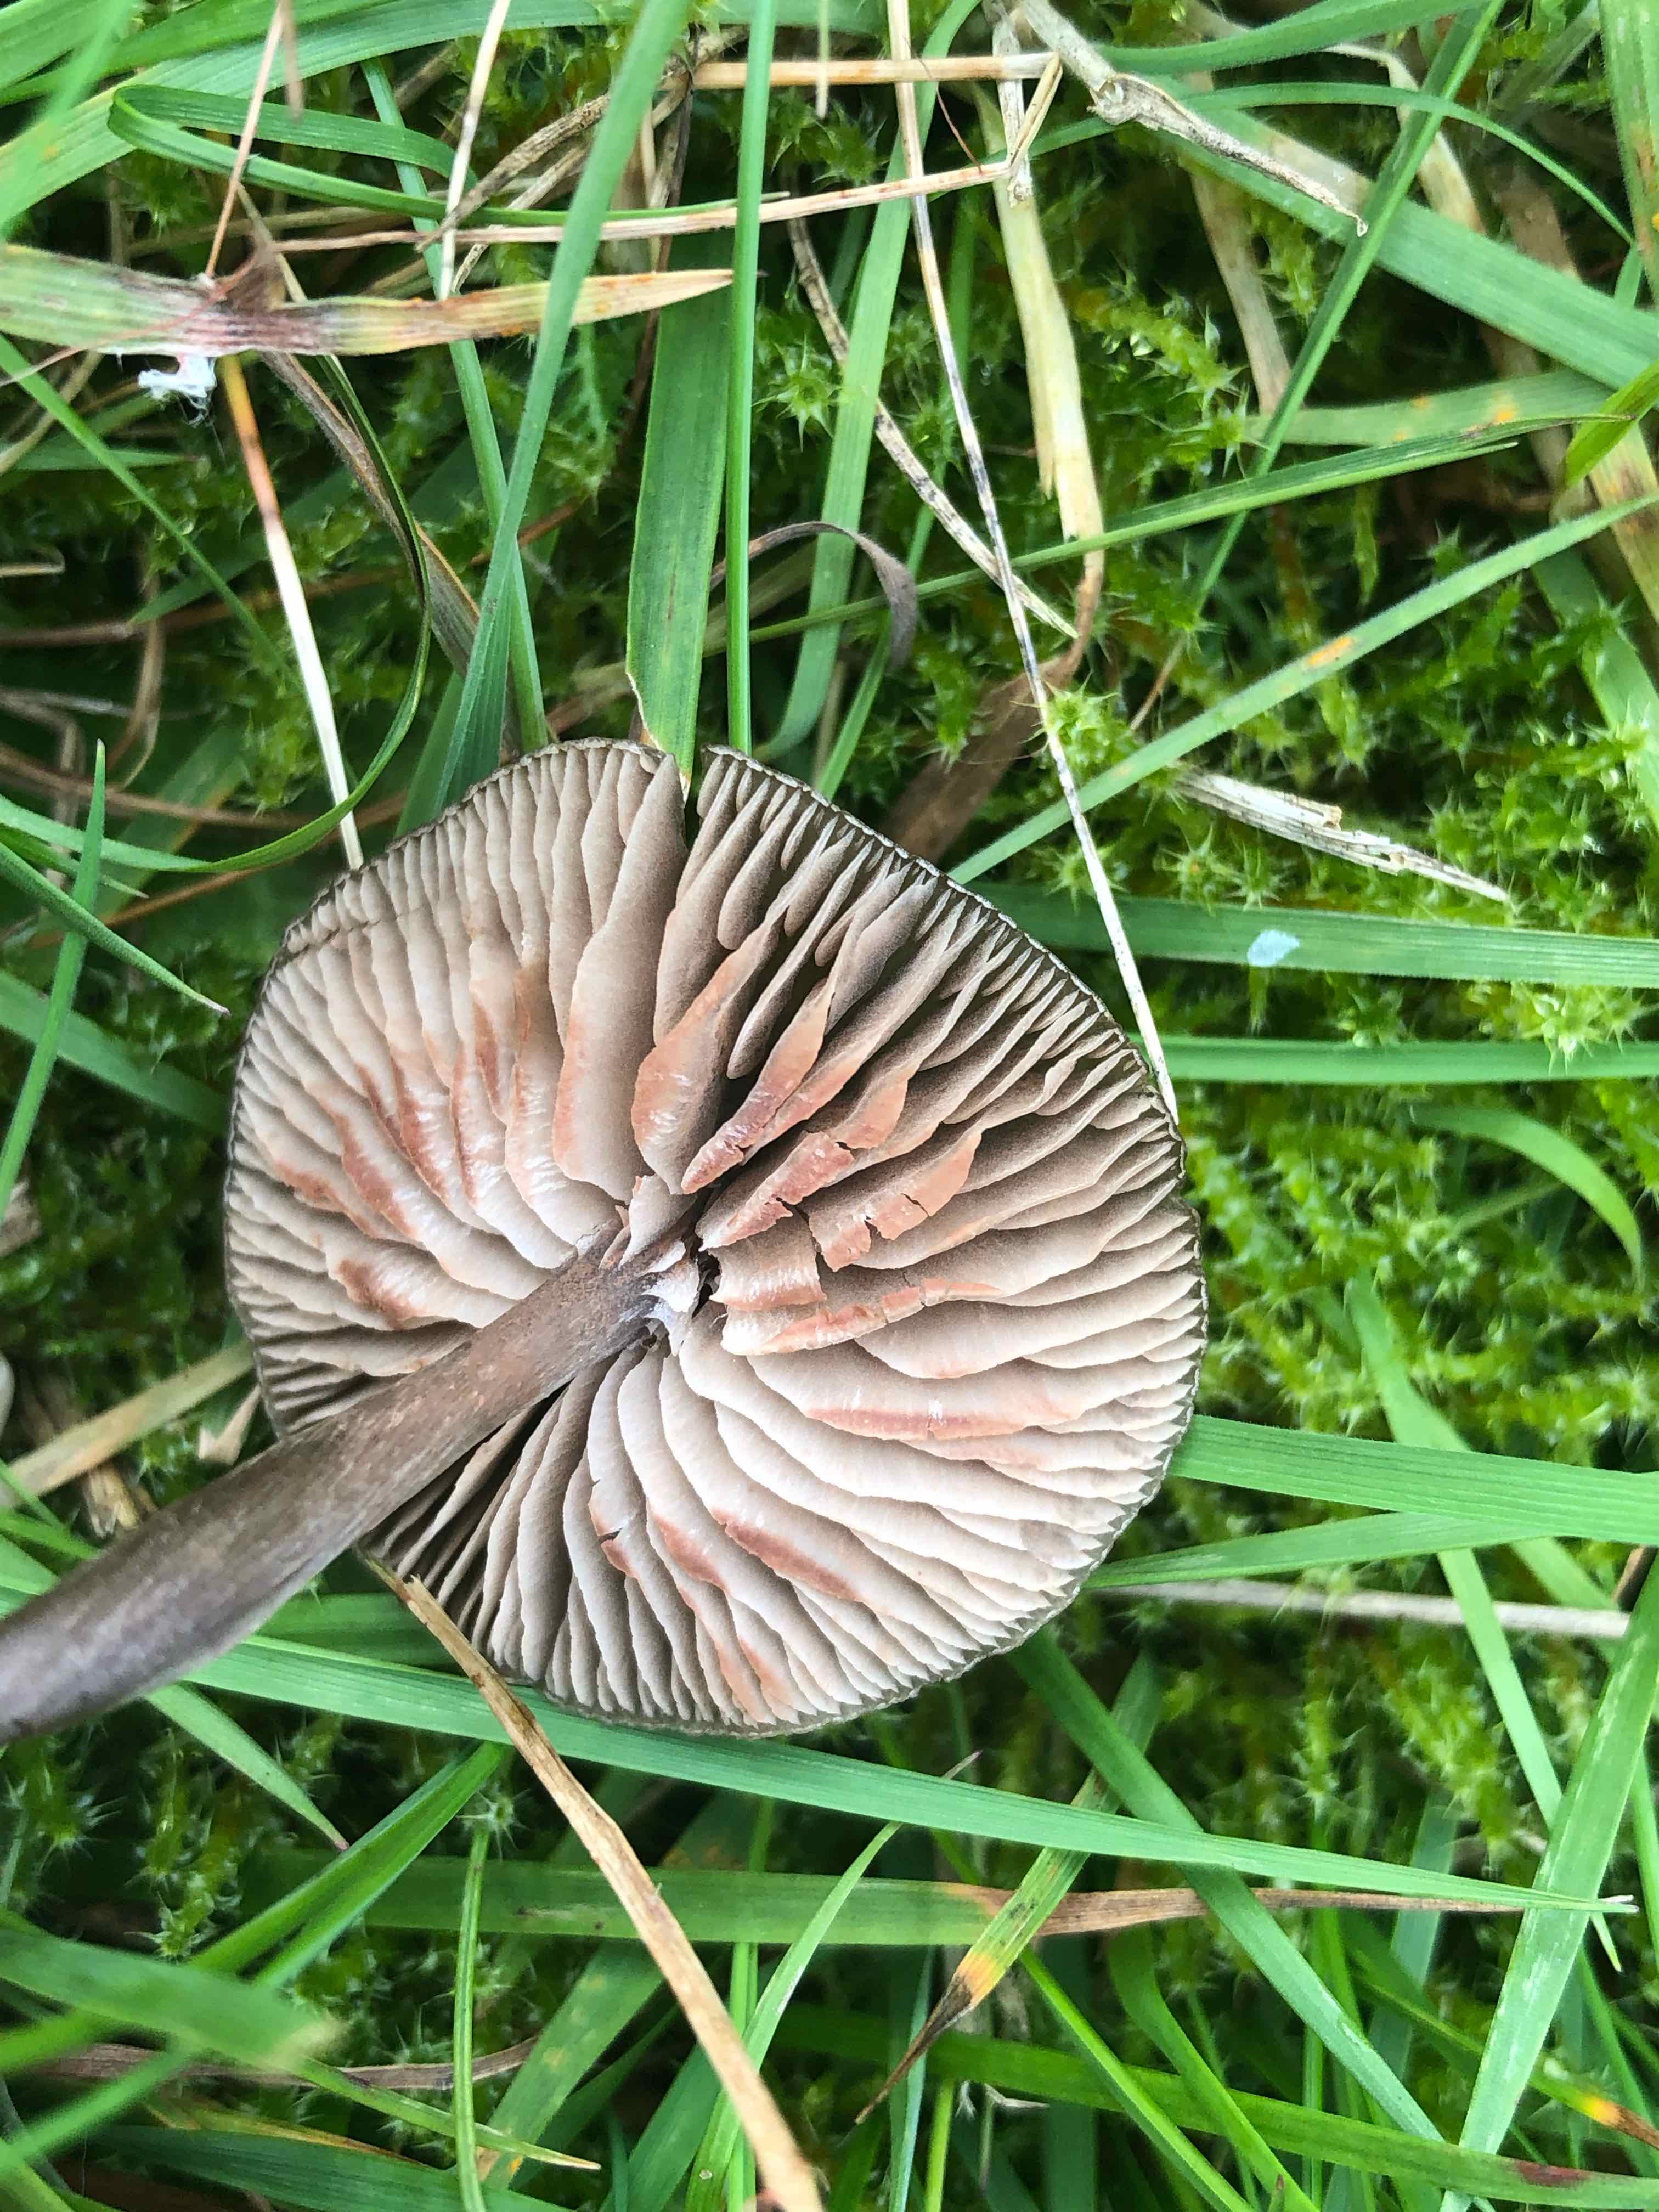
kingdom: Fungi
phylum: Basidiomycota
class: Agaricomycetes
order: Agaricales
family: Entolomataceae
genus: Entoloma
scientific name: Entoloma sericeum
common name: silkeglinsende rødblad
